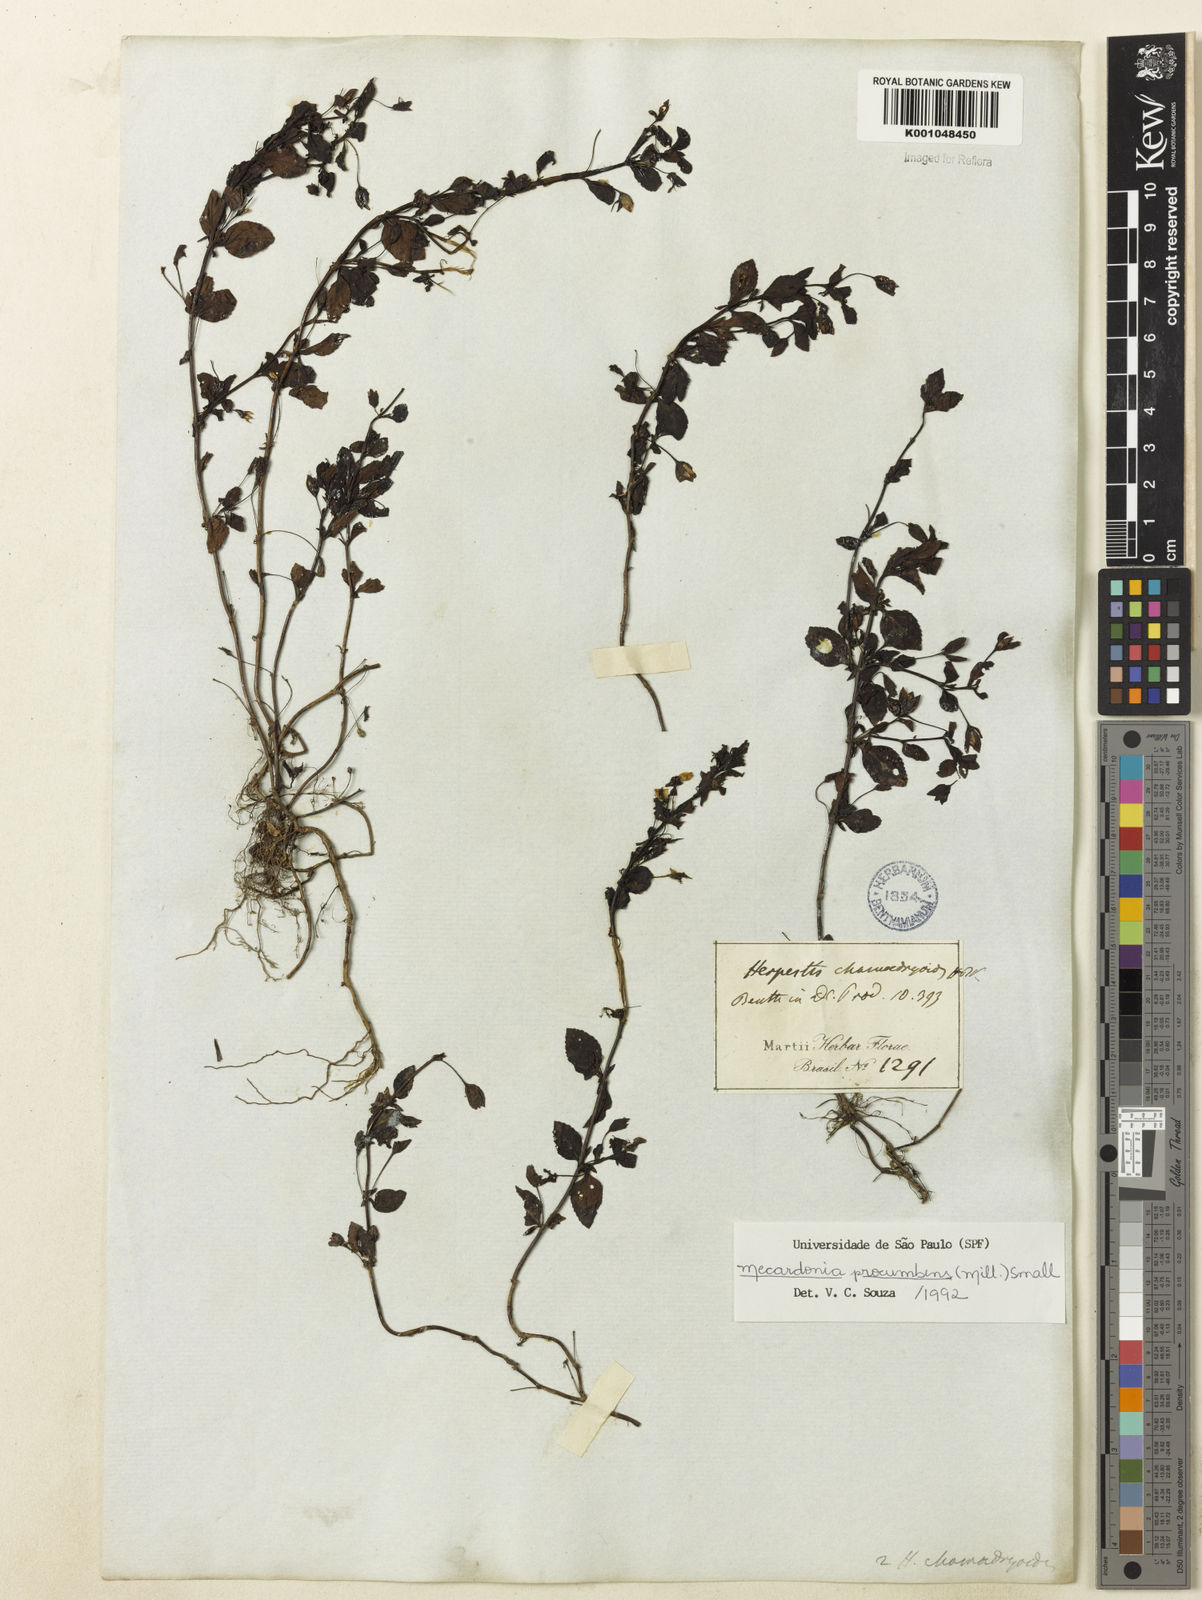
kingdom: Plantae
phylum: Tracheophyta
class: Magnoliopsida
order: Lamiales
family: Plantaginaceae
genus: Mecardonia
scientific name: Mecardonia procumbens
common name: Baby jump-up
